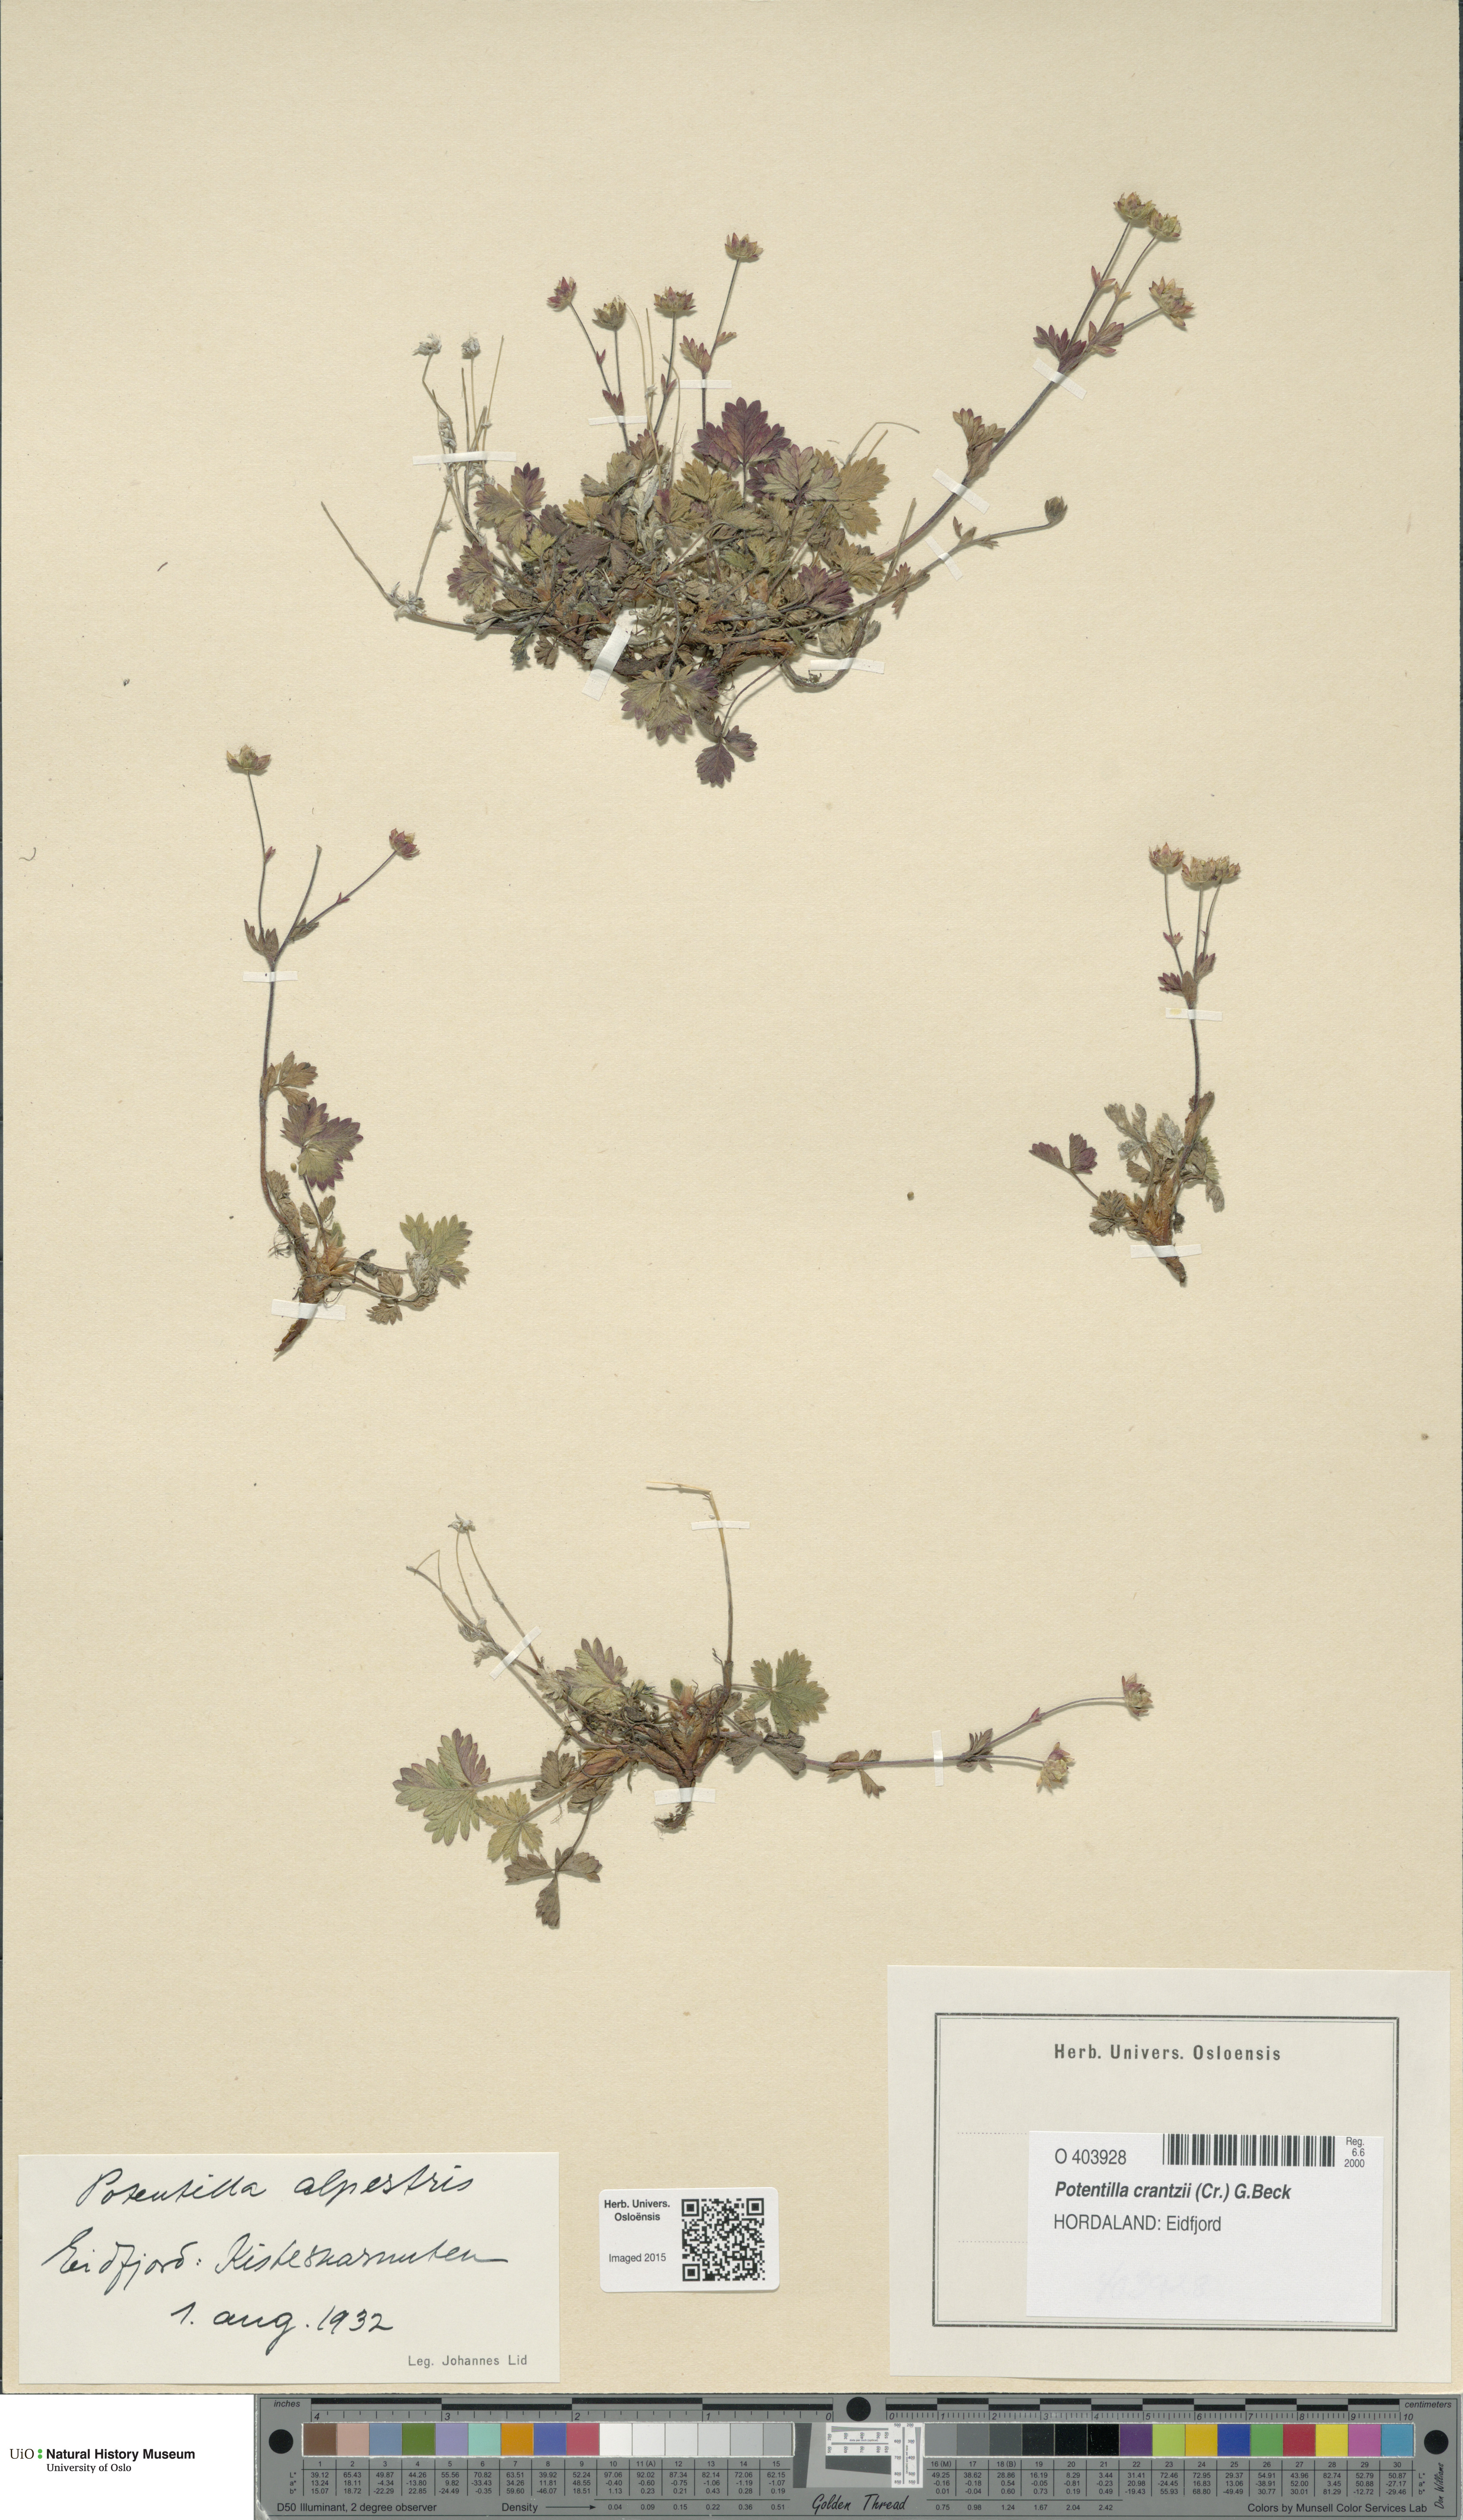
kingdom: Plantae
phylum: Tracheophyta
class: Magnoliopsida
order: Rosales
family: Rosaceae
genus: Potentilla
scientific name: Potentilla crantzii
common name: Alpine cinquefoil
